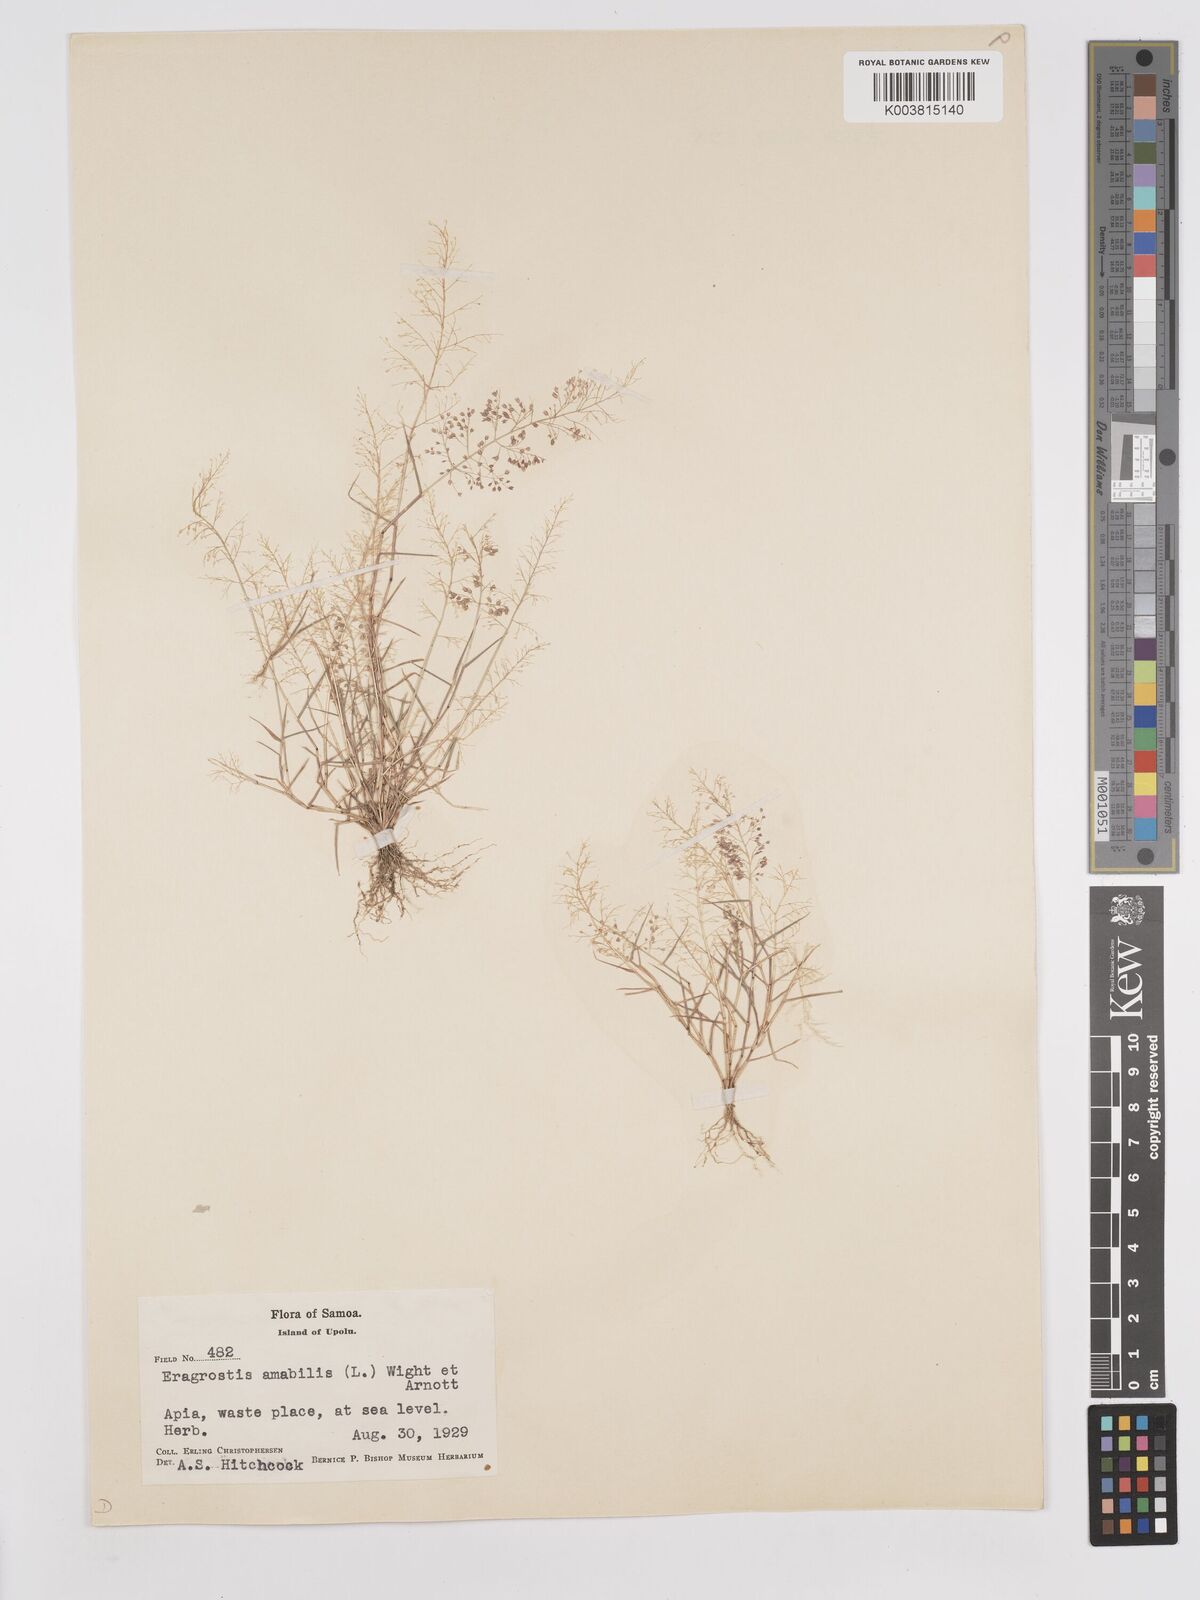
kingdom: Plantae
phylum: Tracheophyta
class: Liliopsida
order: Poales
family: Poaceae
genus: Eragrostis
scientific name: Eragrostis tenella
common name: Japanese lovegrass
